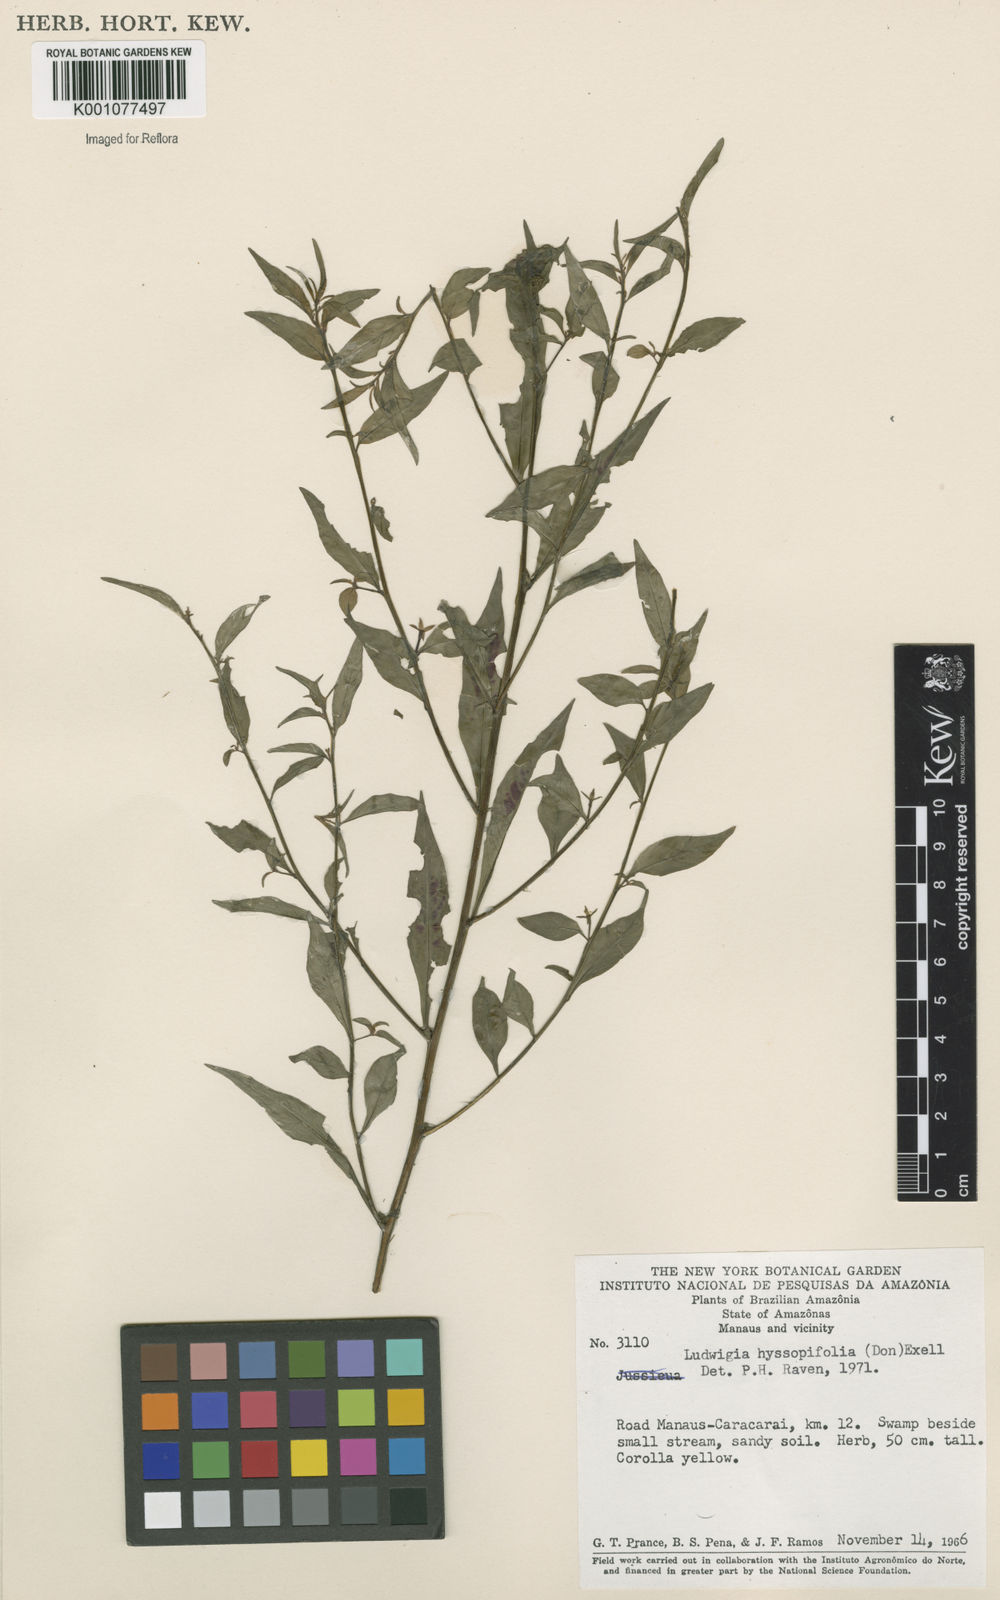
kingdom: Plantae
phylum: Tracheophyta
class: Magnoliopsida
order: Myrtales
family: Onagraceae
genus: Ludwigia
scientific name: Ludwigia hyssopifolia
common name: Linear leaf water primrose
